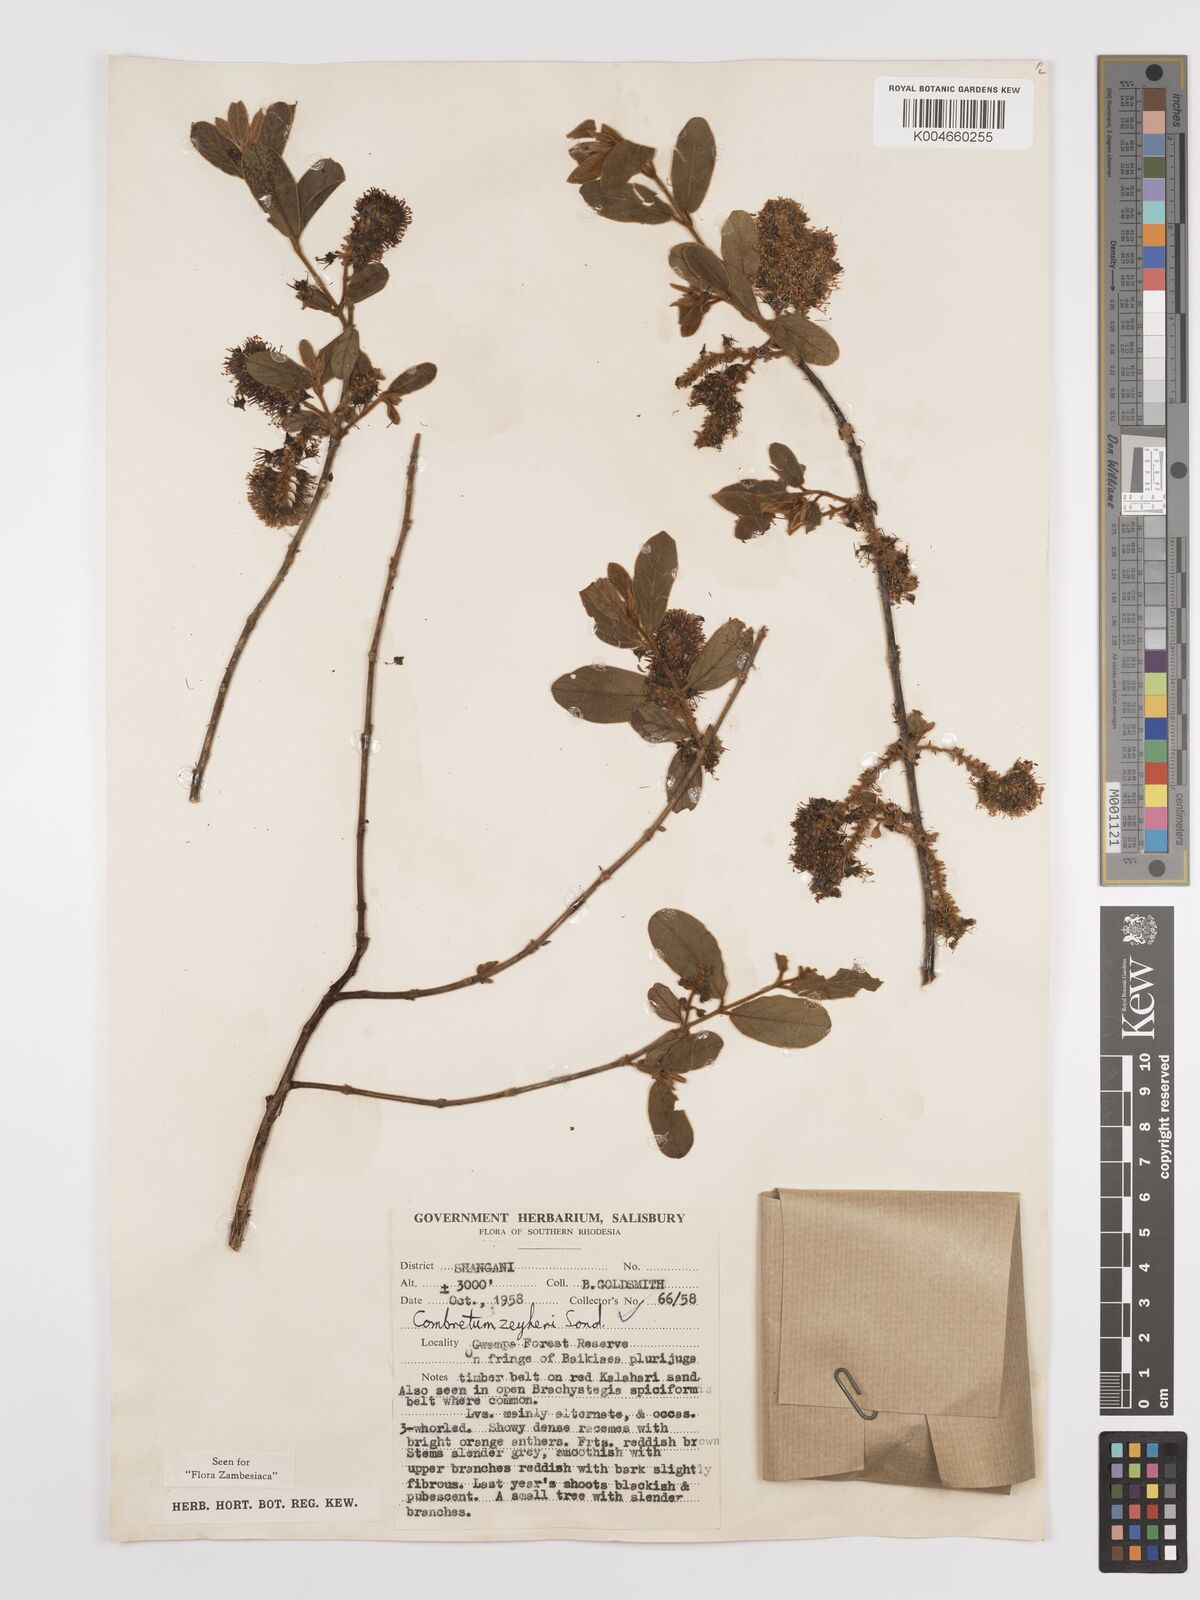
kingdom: Plantae
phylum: Tracheophyta
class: Magnoliopsida
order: Myrtales
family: Combretaceae
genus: Combretum
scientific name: Combretum zeyheri
